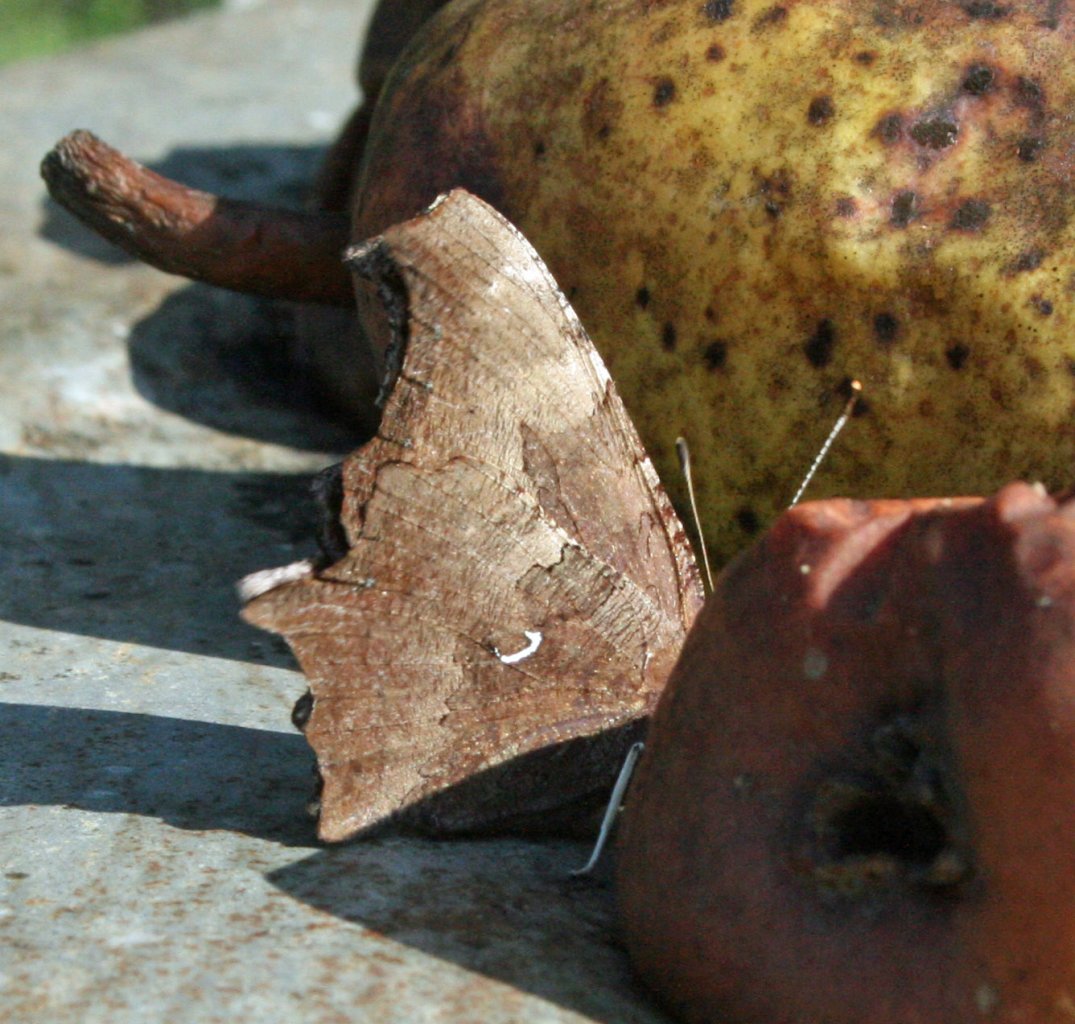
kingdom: Animalia
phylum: Arthropoda
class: Insecta
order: Lepidoptera
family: Nymphalidae
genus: Polygonia
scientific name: Polygonia comma
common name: Eastern Comma
